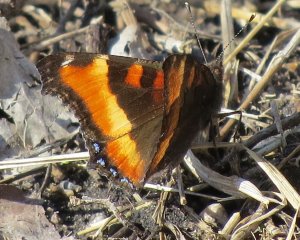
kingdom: Animalia
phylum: Arthropoda
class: Insecta
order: Lepidoptera
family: Nymphalidae
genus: Aglais
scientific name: Aglais milberti
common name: Milbert's Tortoiseshell
